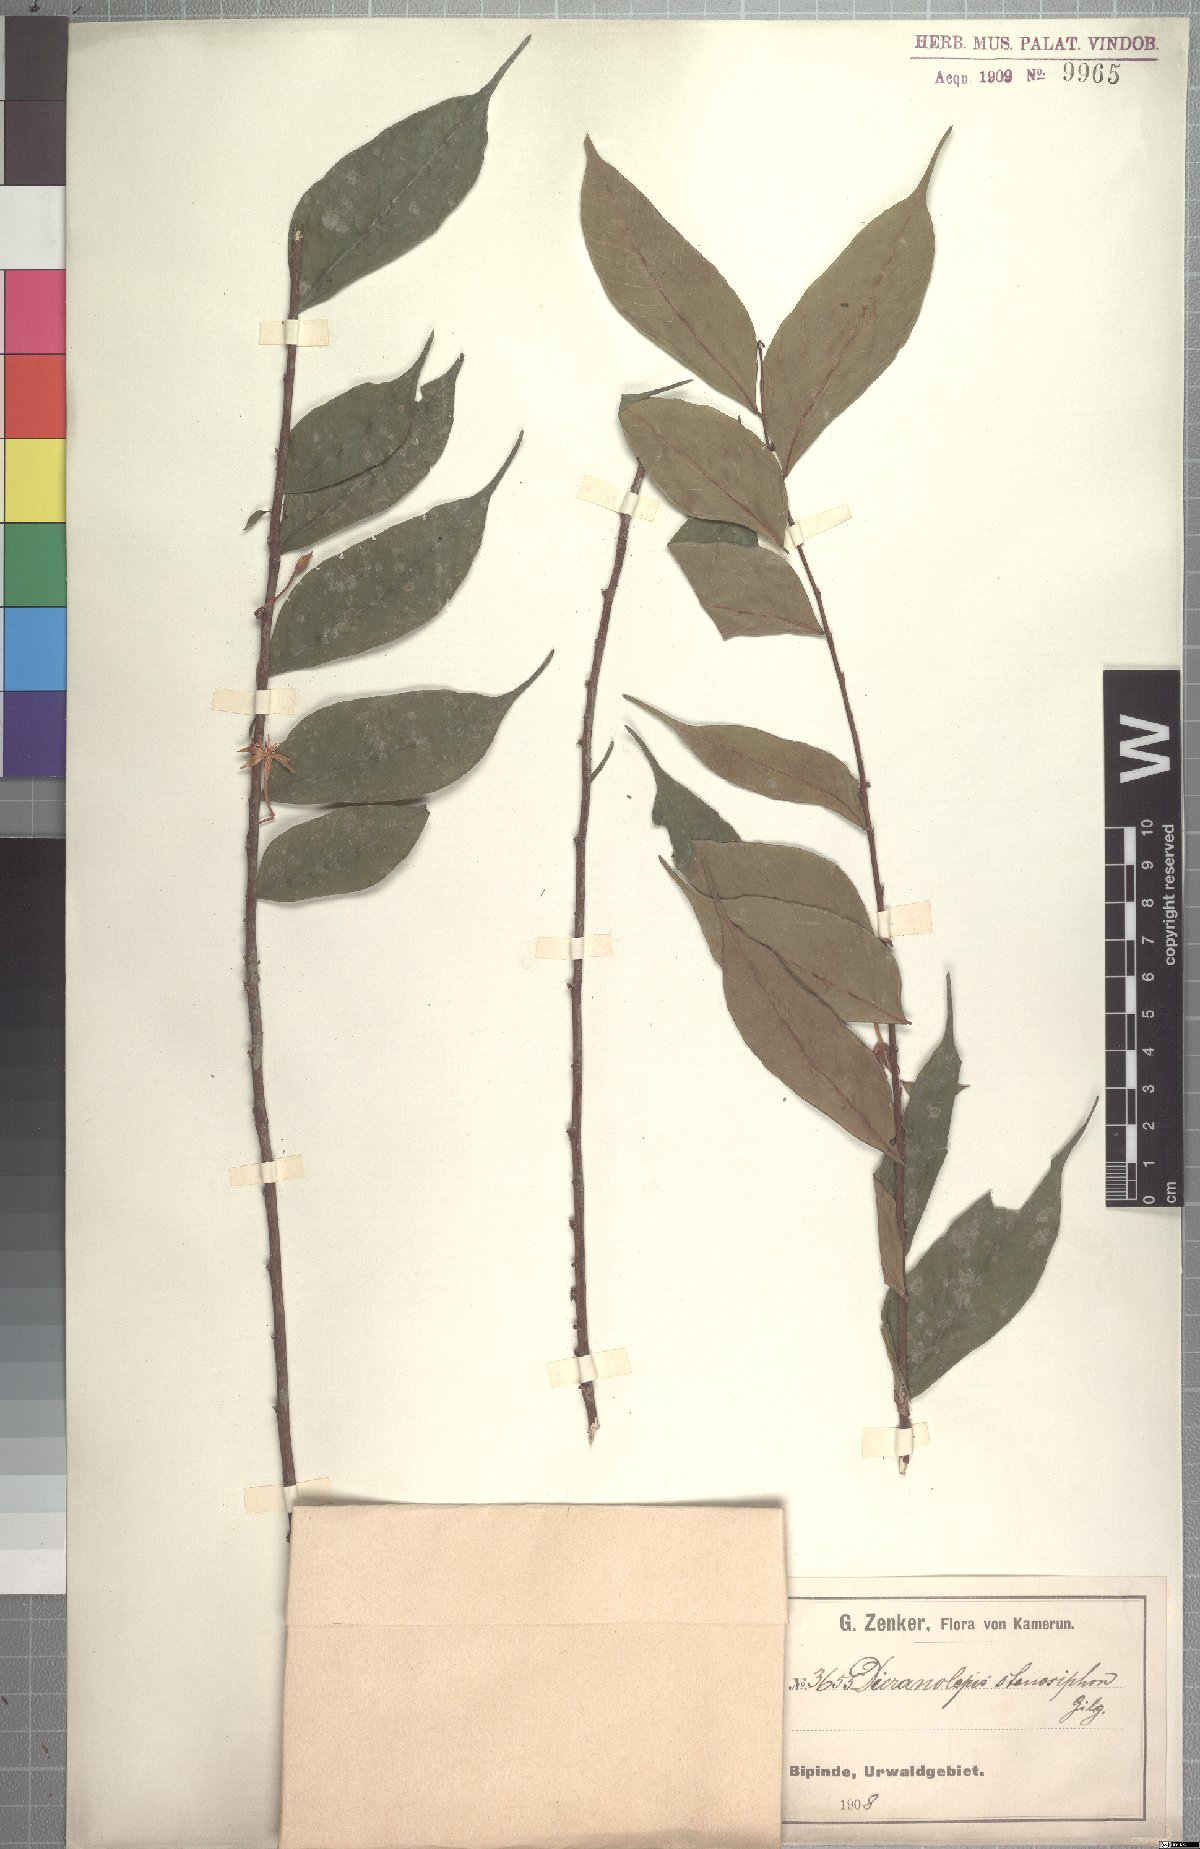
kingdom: Plantae
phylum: Tracheophyta
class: Magnoliopsida
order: Malvales
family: Thymelaeaceae
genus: Dicranolepis
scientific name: Dicranolepis disticha
